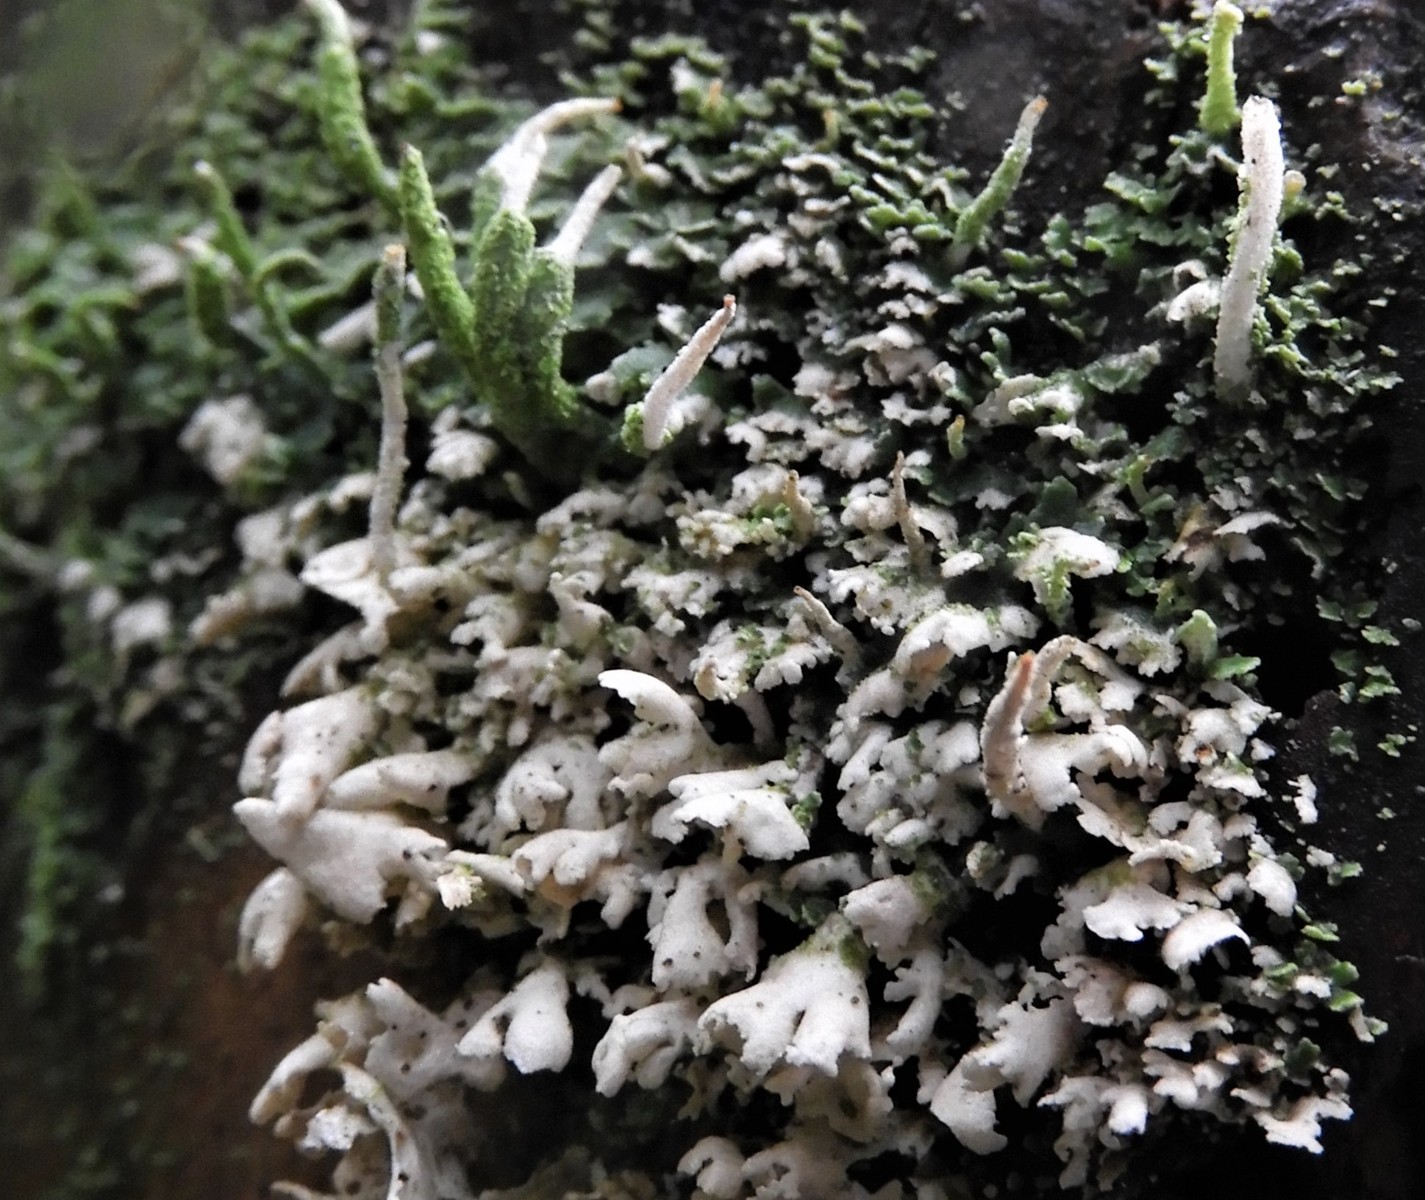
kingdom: Fungi
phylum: Ascomycota
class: Lecanoromycetes
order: Lecanorales
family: Cladoniaceae
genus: Cladonia
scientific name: Cladonia coniocraea
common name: træfods-bægerlav
